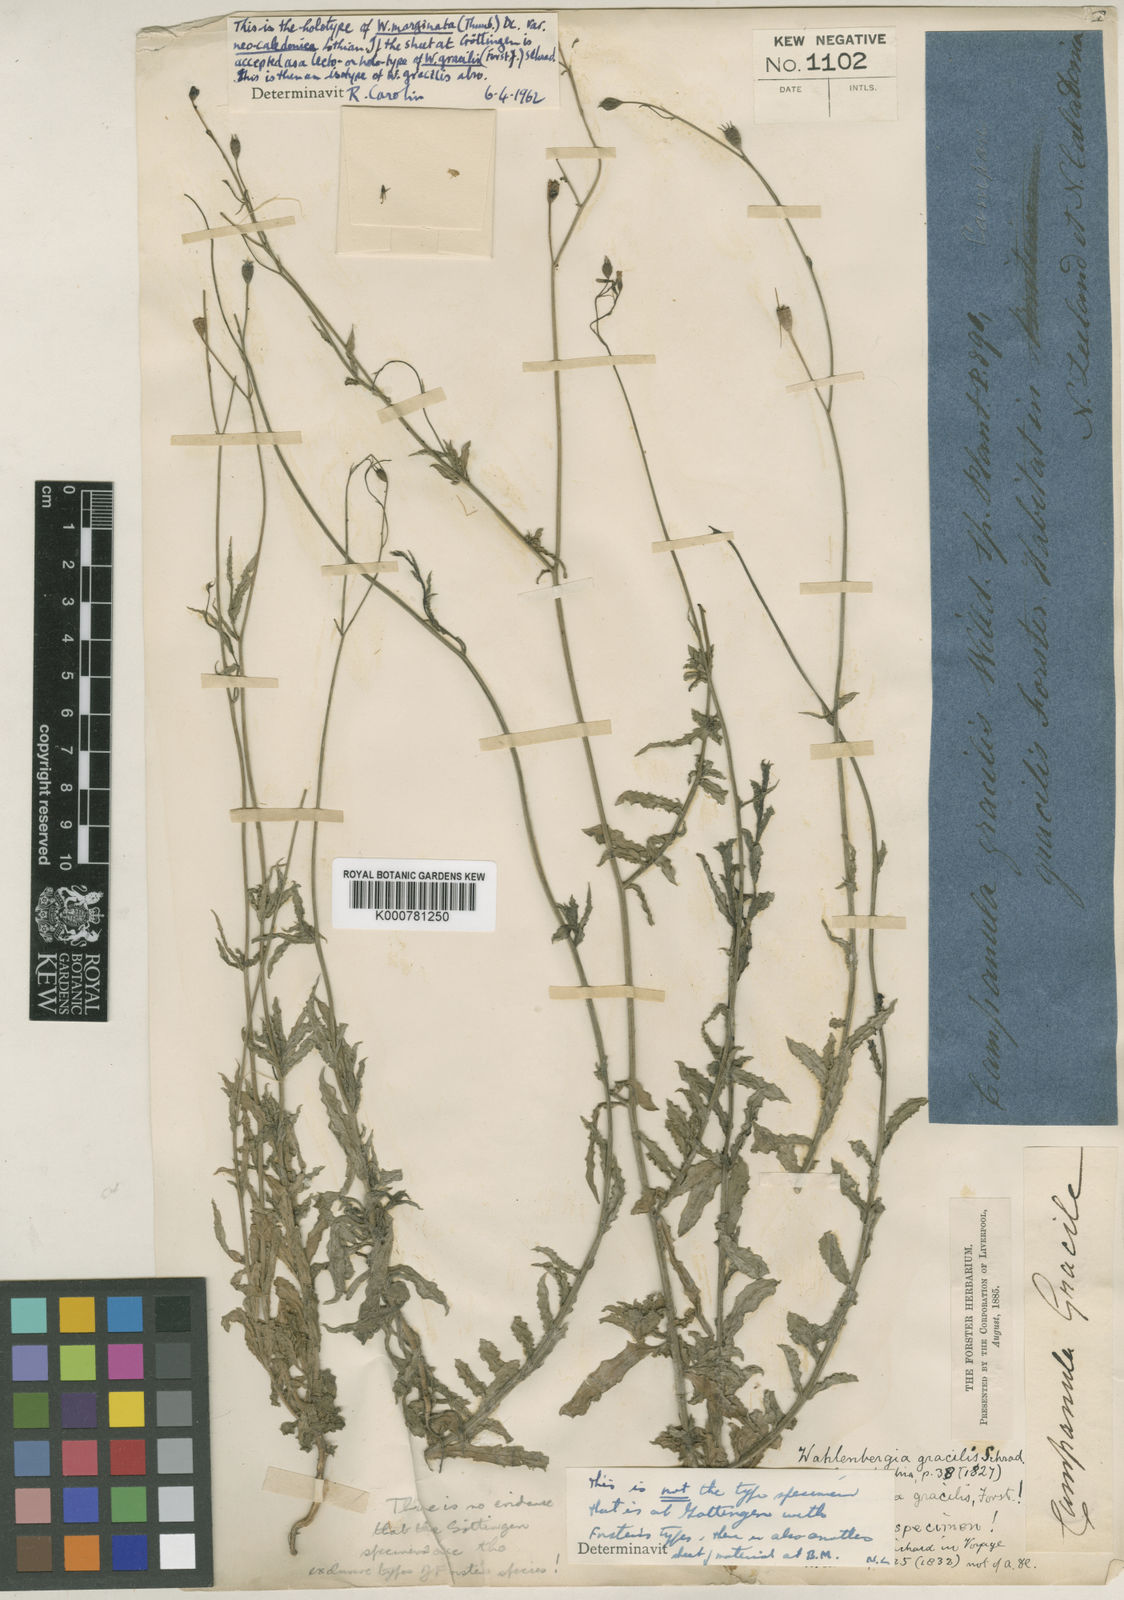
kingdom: Plantae
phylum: Tracheophyta
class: Magnoliopsida
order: Asterales
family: Campanulaceae
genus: Wahlenbergia
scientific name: Wahlenbergia
